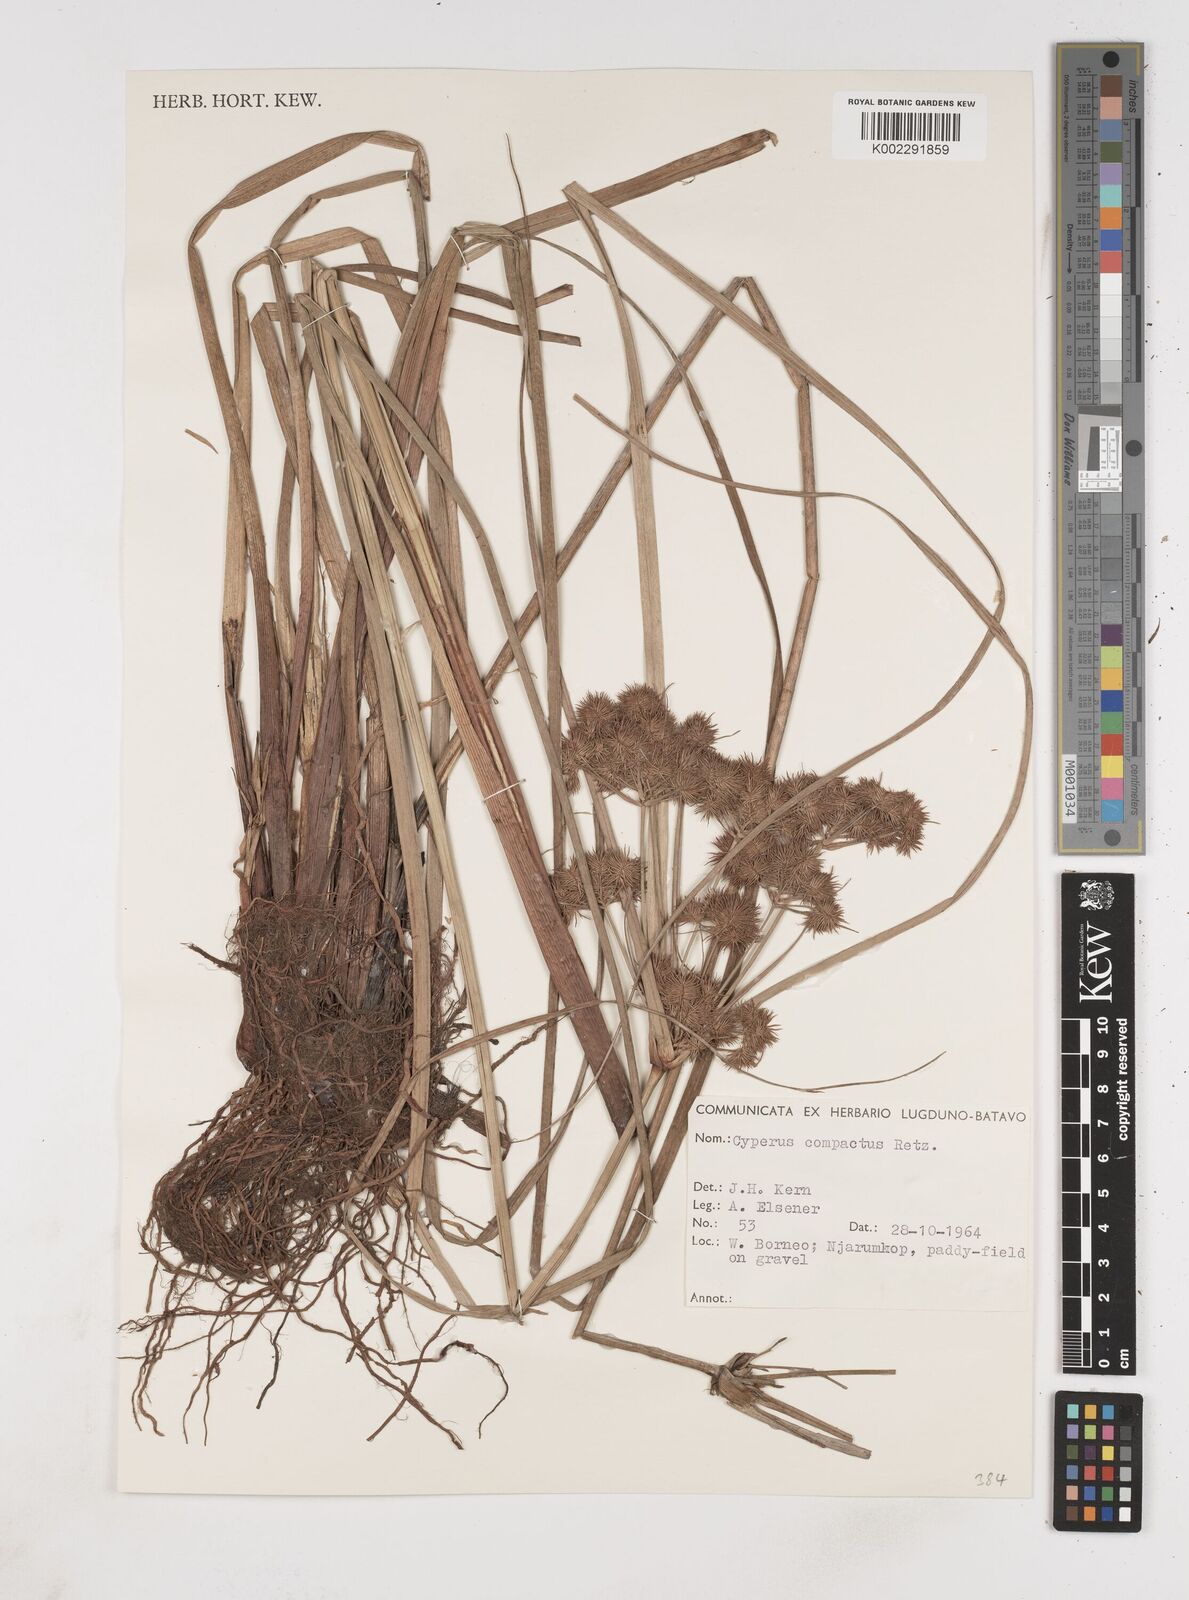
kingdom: Plantae
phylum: Tracheophyta
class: Liliopsida
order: Poales
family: Cyperaceae
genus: Cyperus
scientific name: Cyperus compactus
